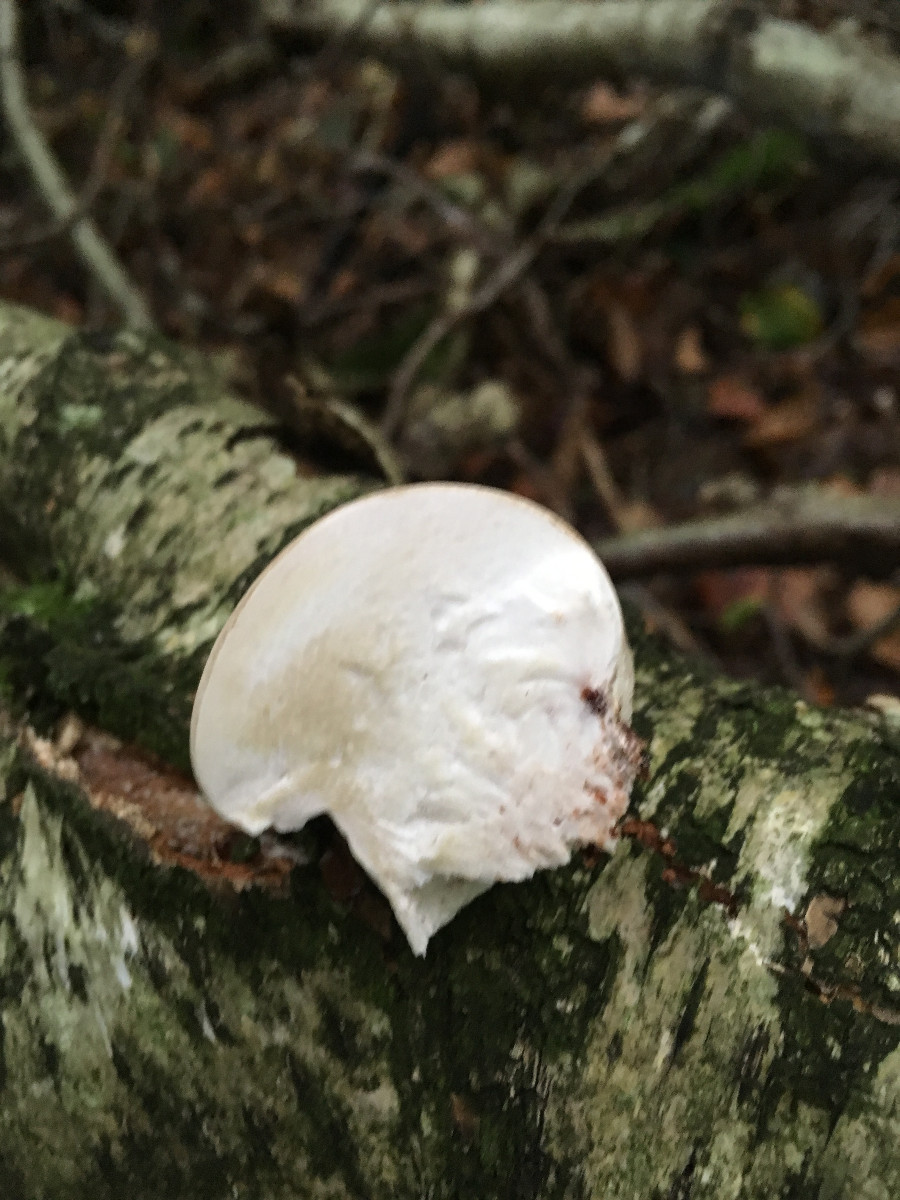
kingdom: Fungi
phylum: Basidiomycota
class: Agaricomycetes
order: Polyporales
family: Fomitopsidaceae
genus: Fomitopsis
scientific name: Fomitopsis betulina
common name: birkeporesvamp
